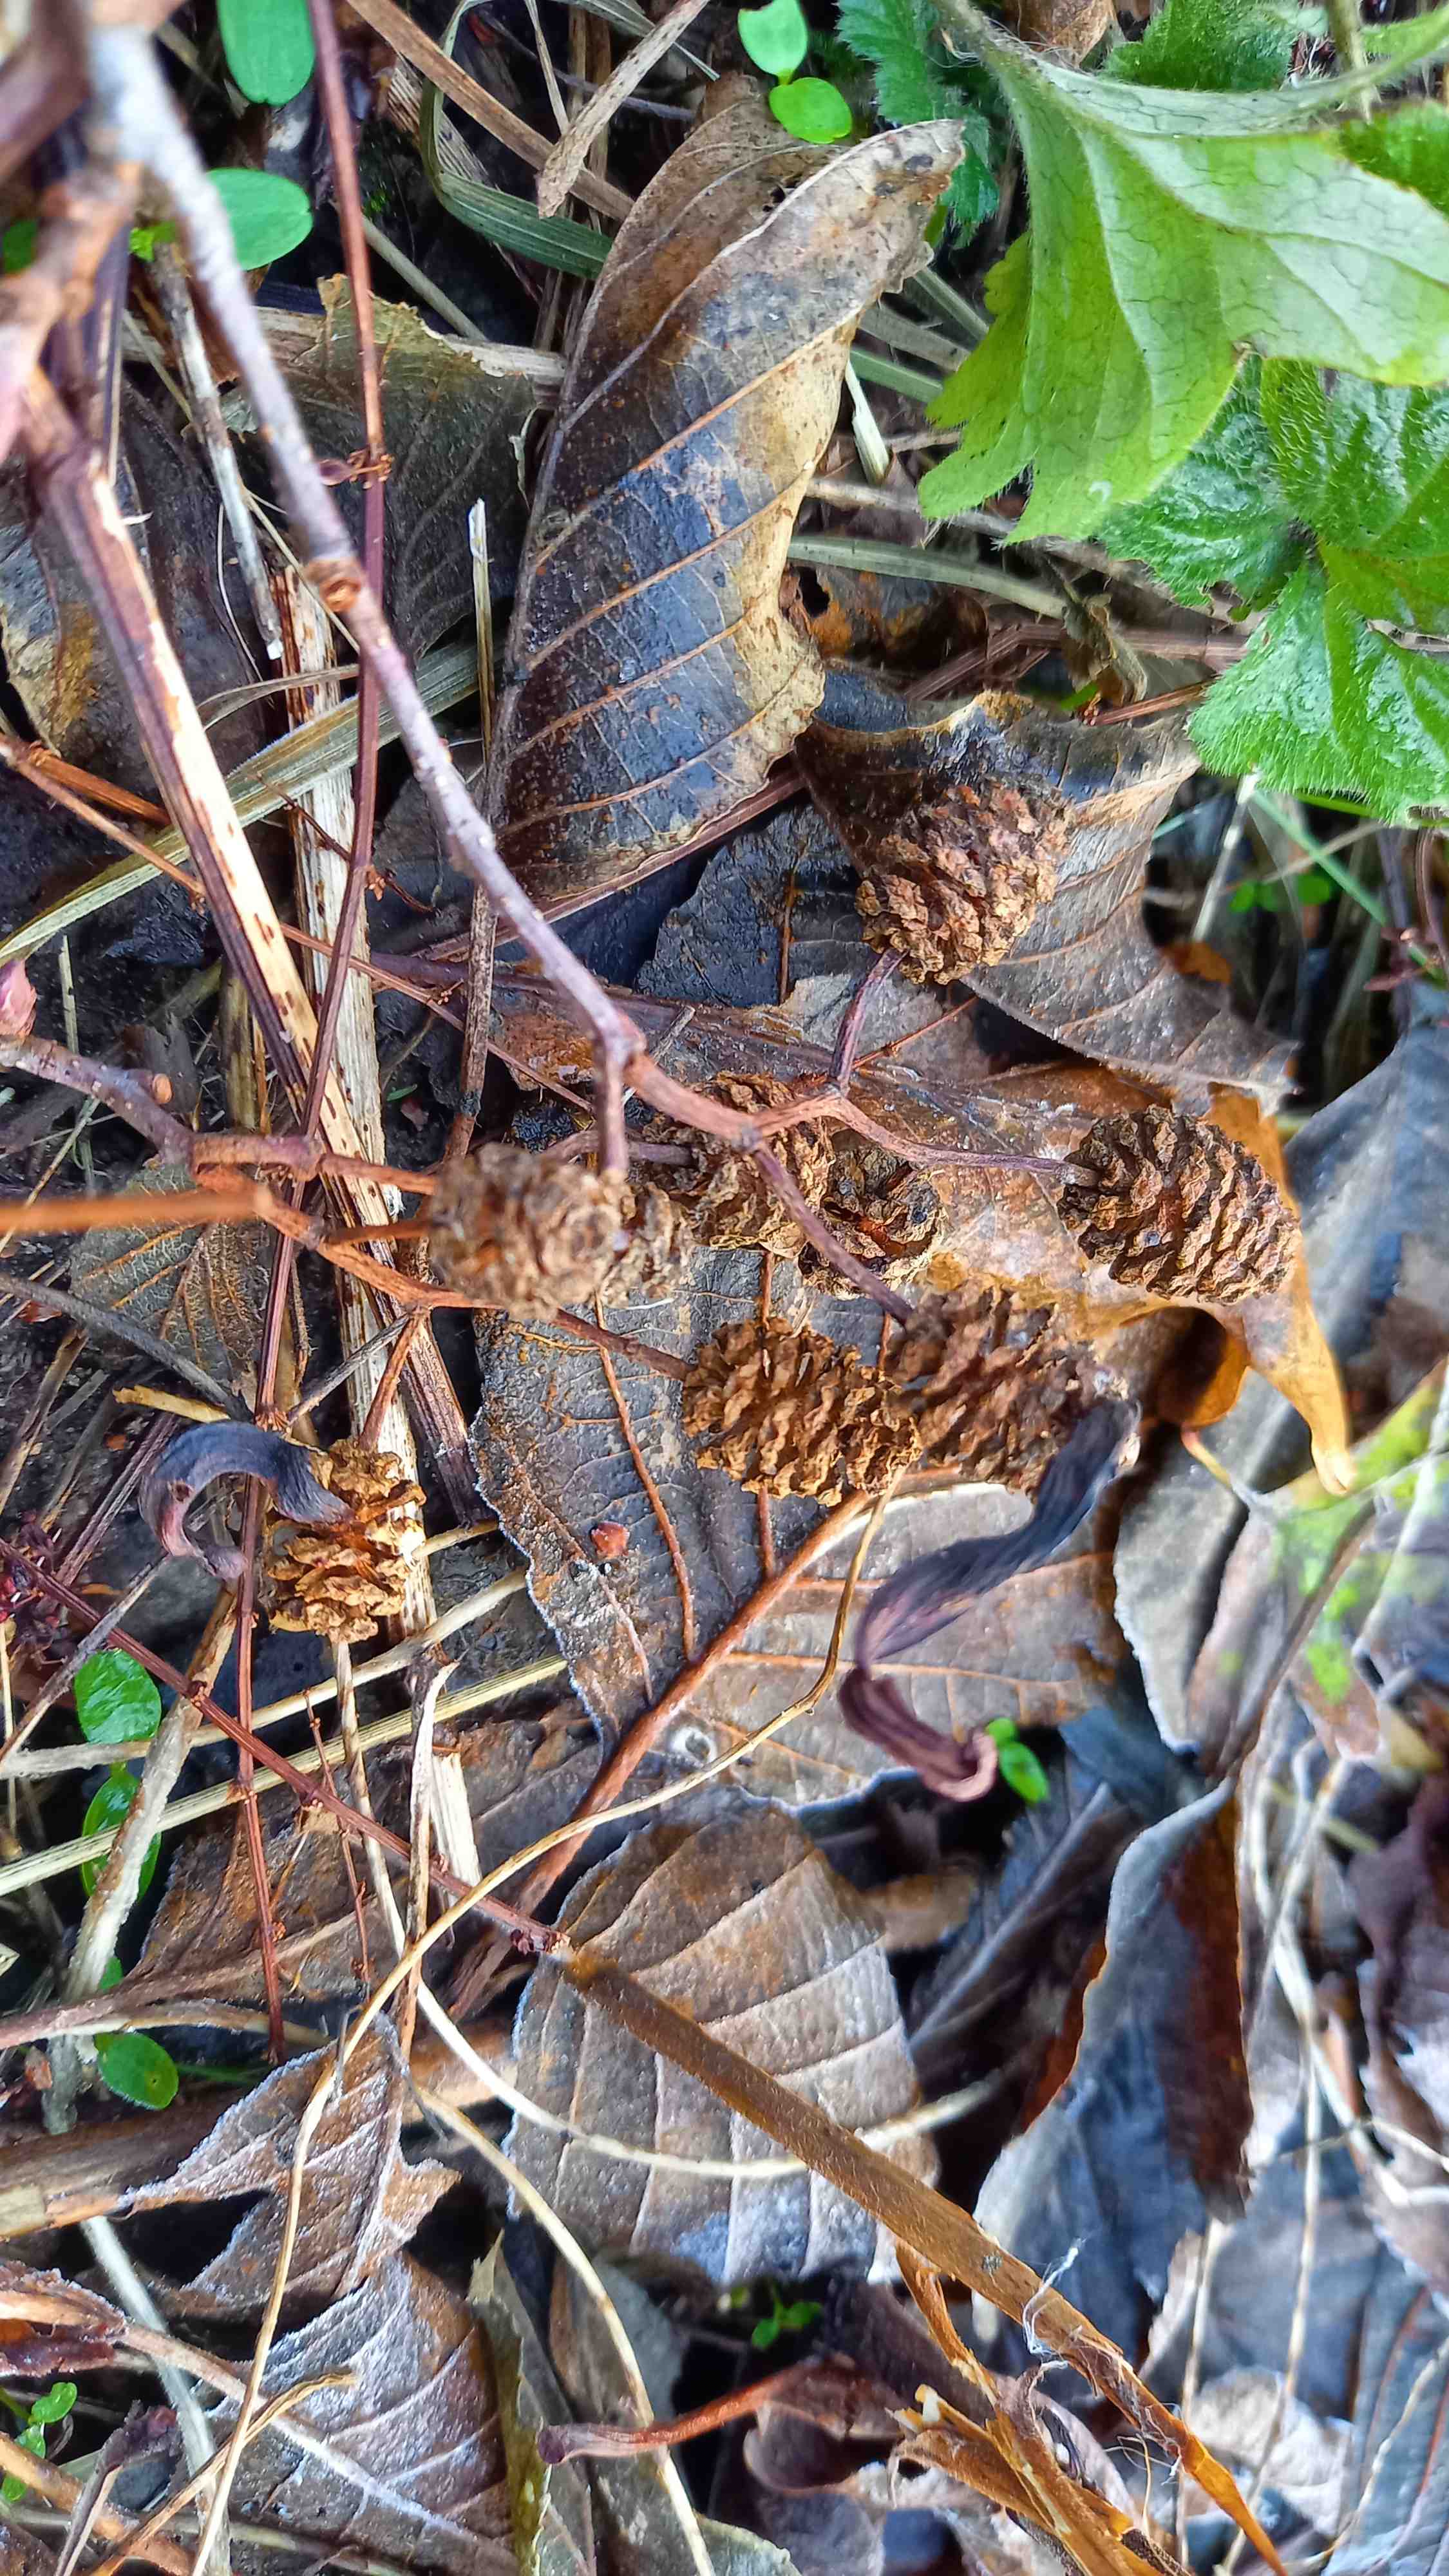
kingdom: Fungi
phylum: Ascomycota
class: Taphrinomycetes
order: Taphrinales
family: Taphrinaceae
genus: Taphrina
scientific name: Taphrina alni
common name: Alder tongue
